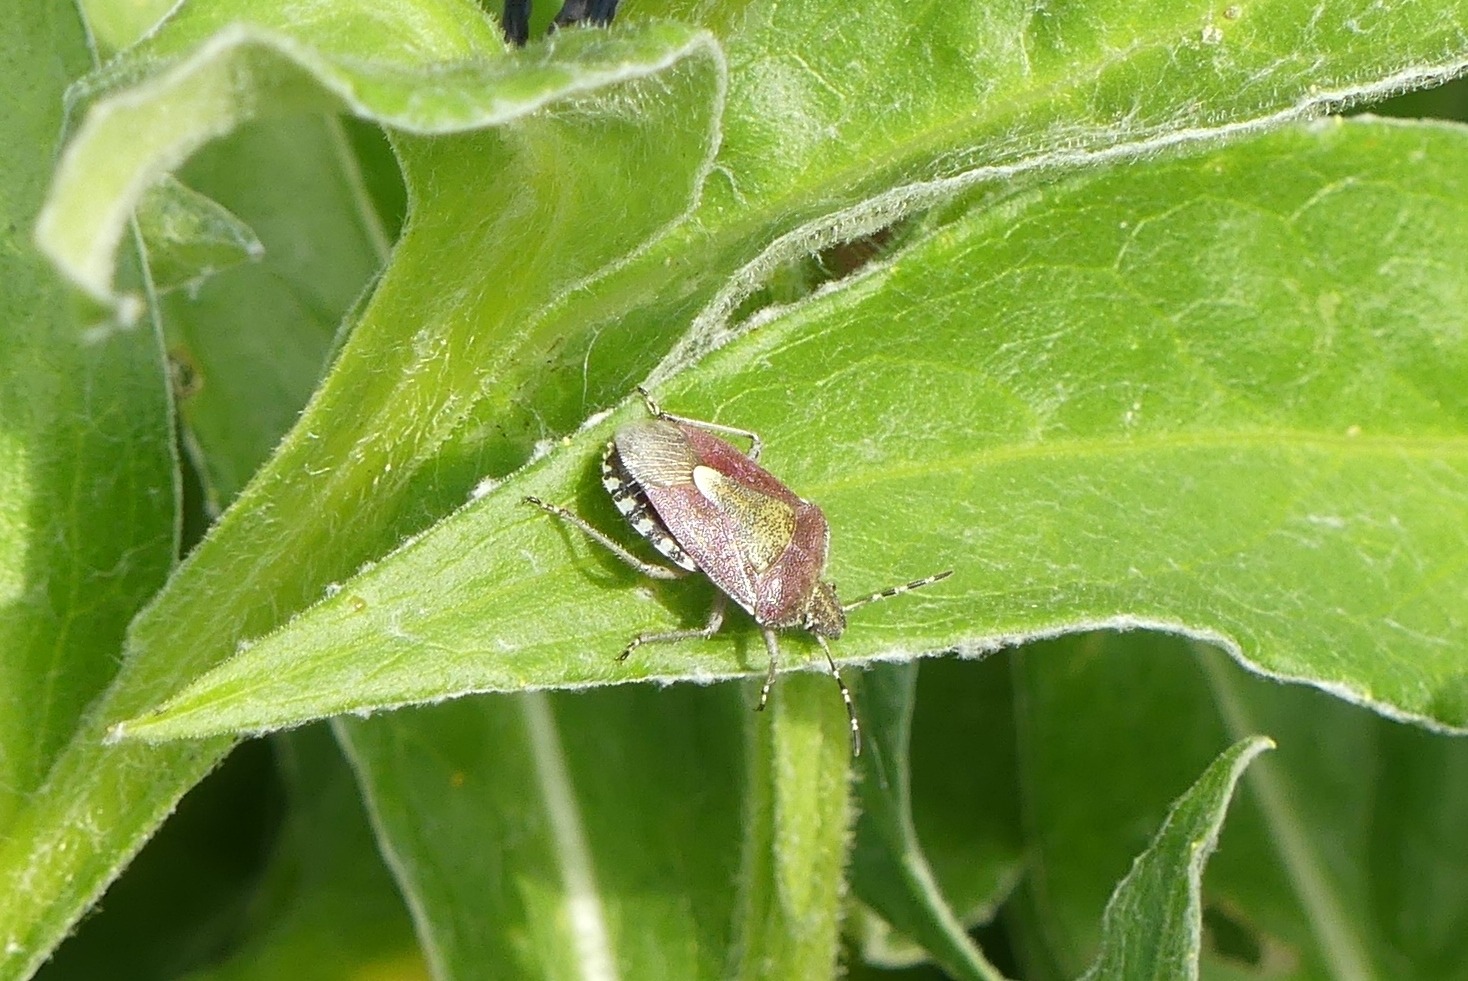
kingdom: Animalia
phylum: Arthropoda
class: Insecta
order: Hemiptera
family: Pentatomidae
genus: Dolycoris
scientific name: Dolycoris baccarum
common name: Almindelig bærtæge
